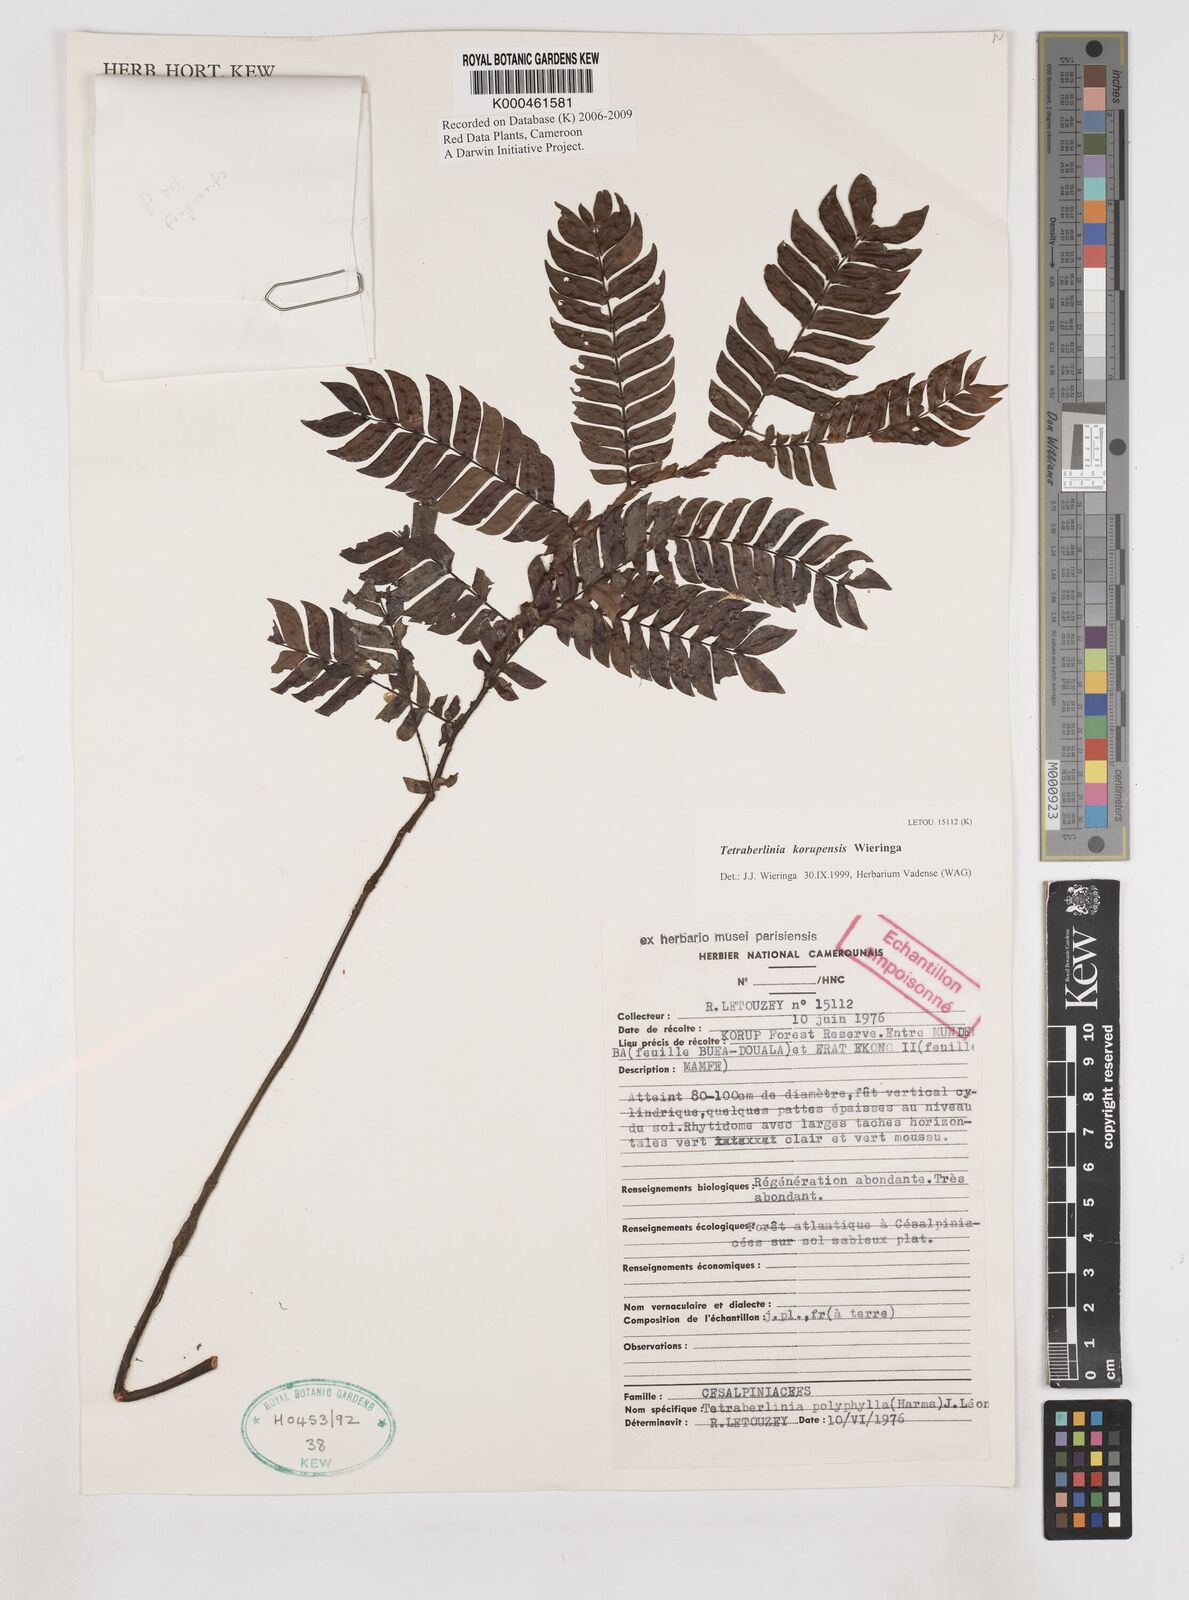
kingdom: Plantae
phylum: Tracheophyta
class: Magnoliopsida
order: Fabales
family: Fabaceae
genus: Tetraberlinia
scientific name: Tetraberlinia korupensis
